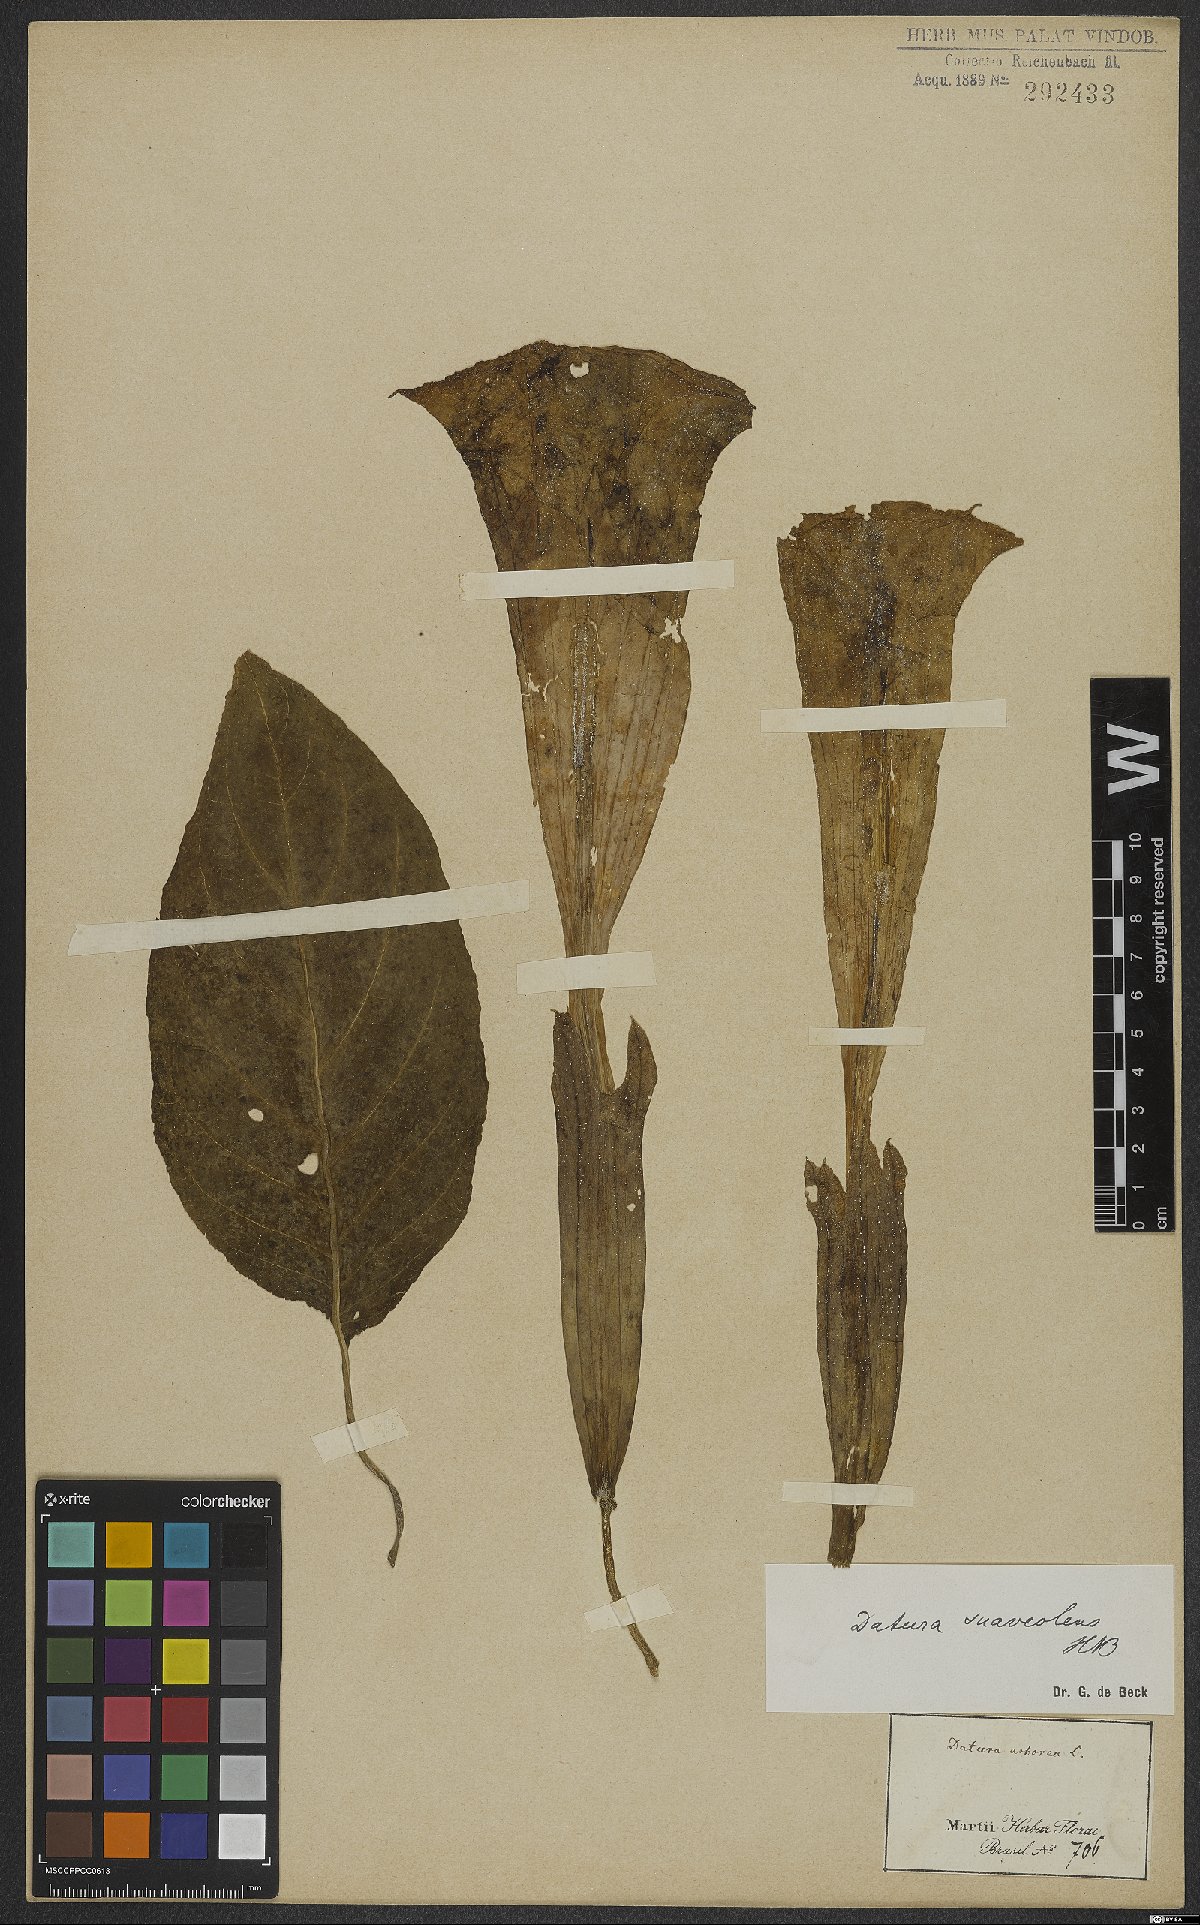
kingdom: Plantae
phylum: Tracheophyta
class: Magnoliopsida
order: Solanales
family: Solanaceae
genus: Brugmansia
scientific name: Brugmansia suaveolens
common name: Angel's tears
